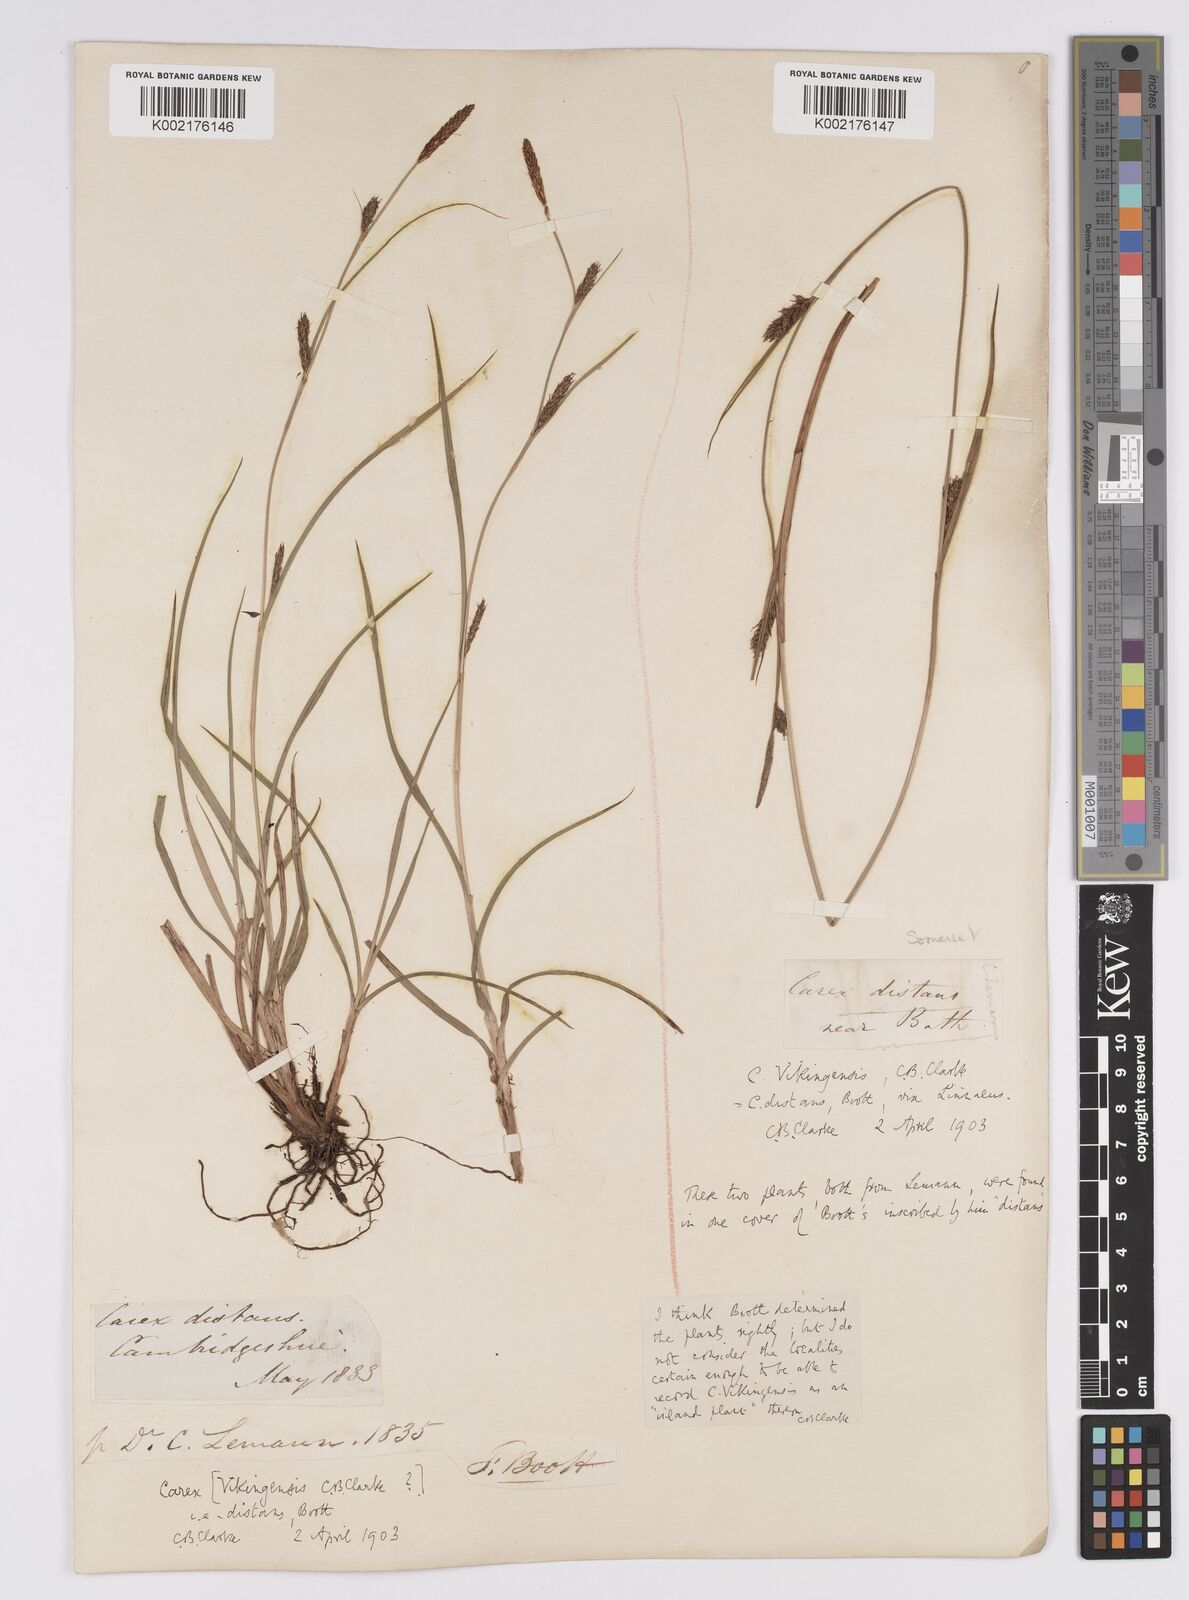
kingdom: Plantae
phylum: Tracheophyta
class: Liliopsida
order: Poales
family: Cyperaceae
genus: Carex
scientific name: Carex distans
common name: Distant sedge
